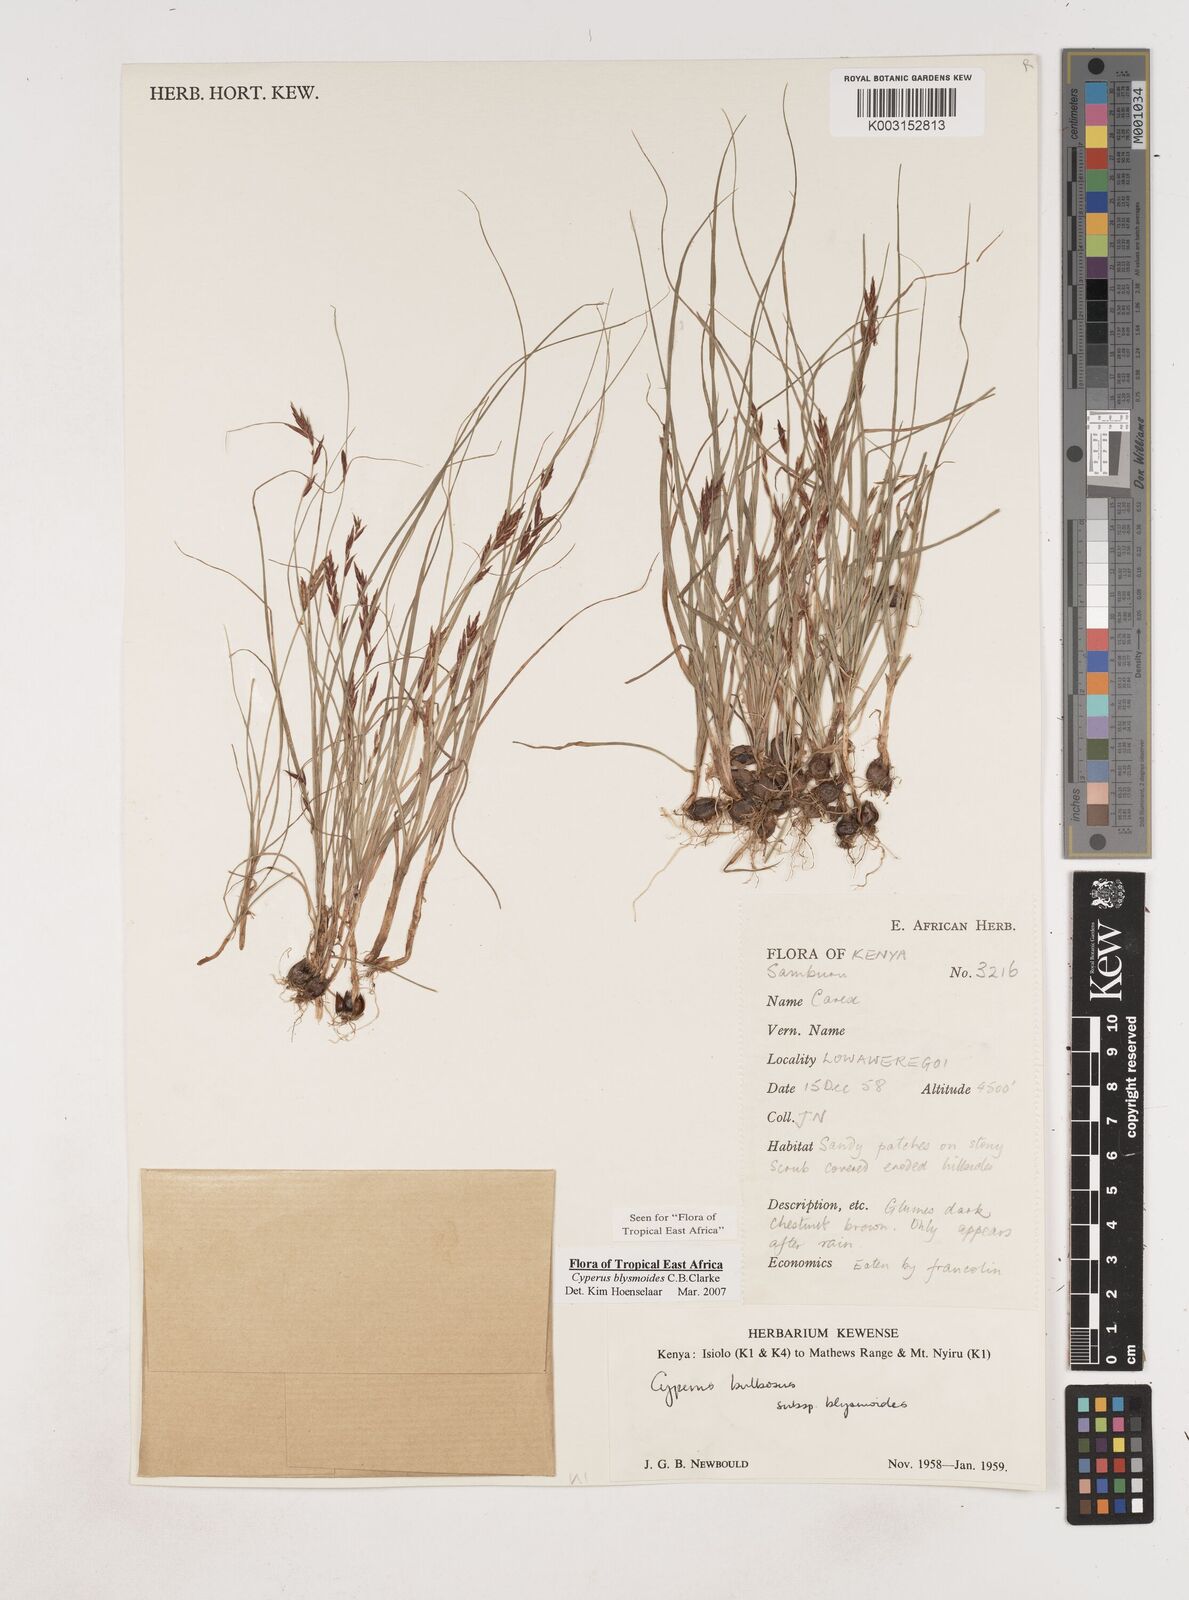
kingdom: Plantae
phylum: Tracheophyta
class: Liliopsida
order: Poales
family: Cyperaceae
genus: Cyperus
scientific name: Cyperus blysmoides
